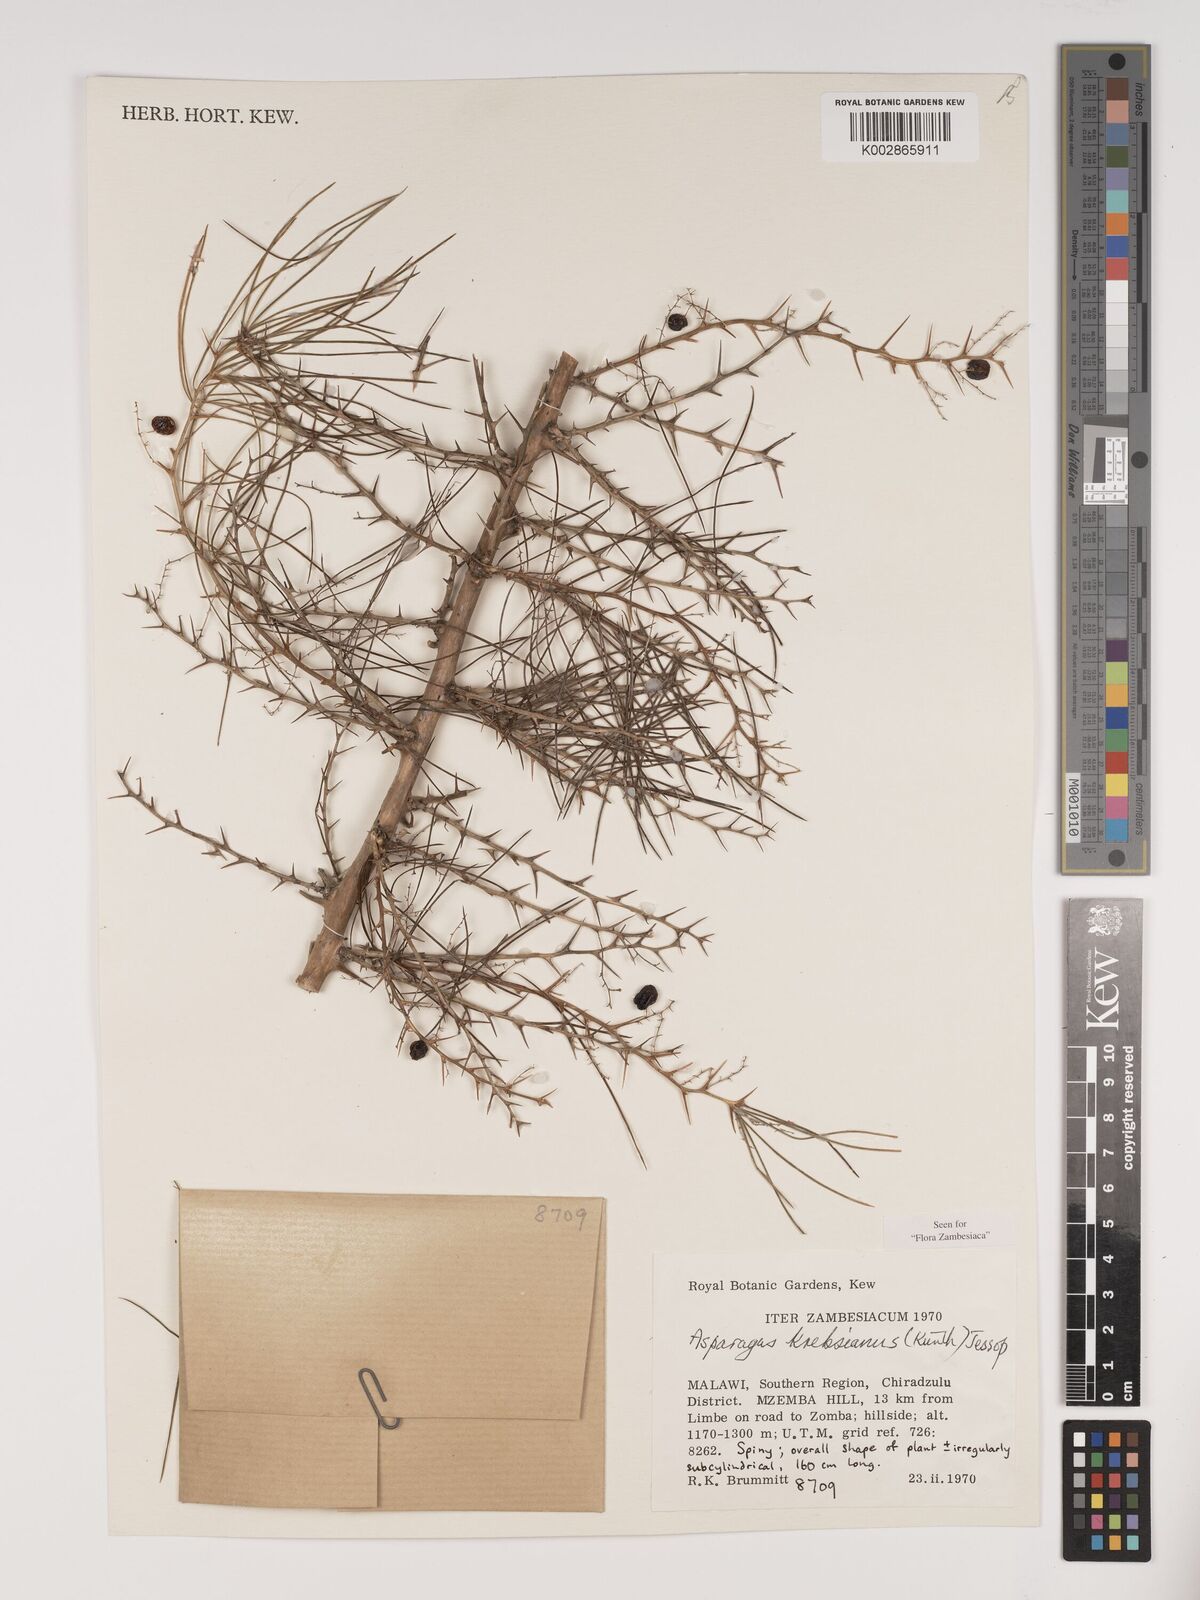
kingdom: Plantae
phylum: Tracheophyta
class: Liliopsida
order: Asparagales
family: Asparagaceae
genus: Asparagus
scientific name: Asparagus krebsianus
